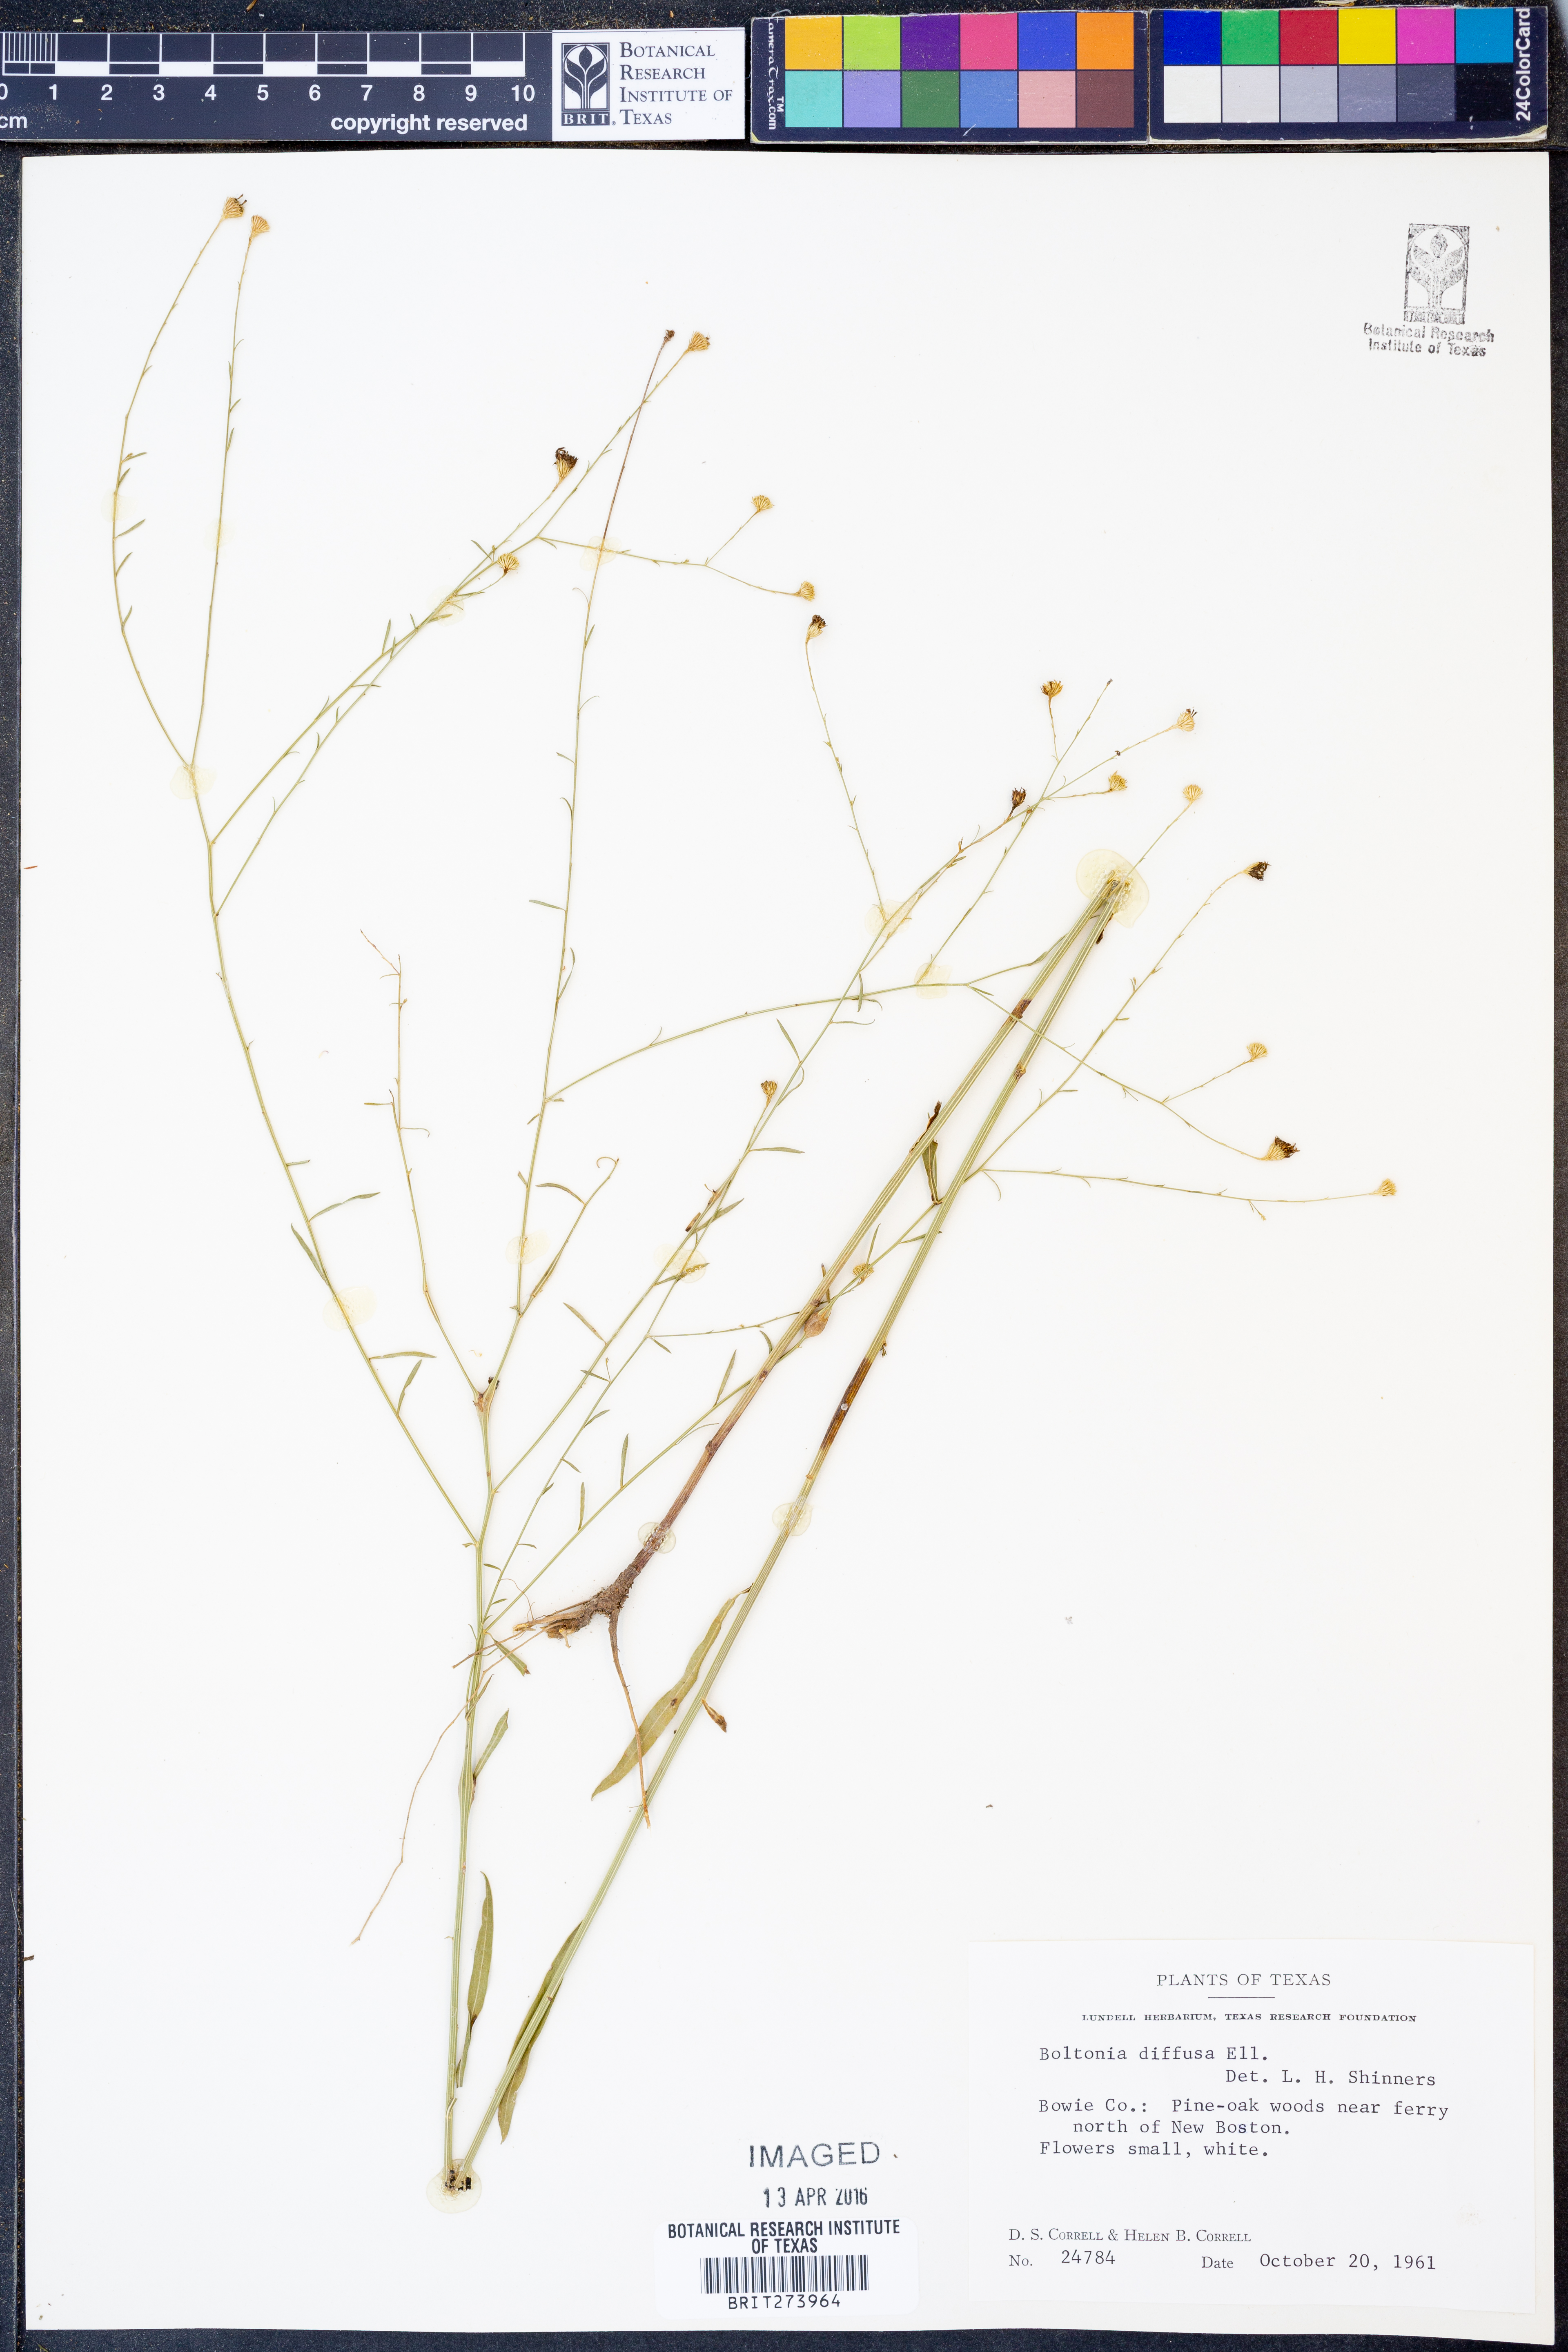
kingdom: Plantae
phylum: Tracheophyta
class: Magnoliopsida
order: Asterales
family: Asteraceae
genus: Boltonia
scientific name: Boltonia diffusa
